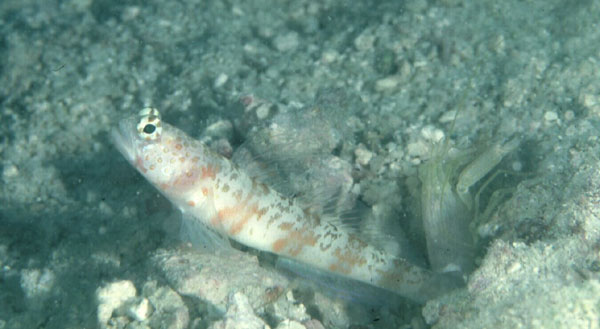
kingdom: Animalia
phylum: Chordata
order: Perciformes
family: Gobiidae
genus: Amblyeleotris
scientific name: Amblyeleotris periophthalma
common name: Periophthalma prawn-goby
